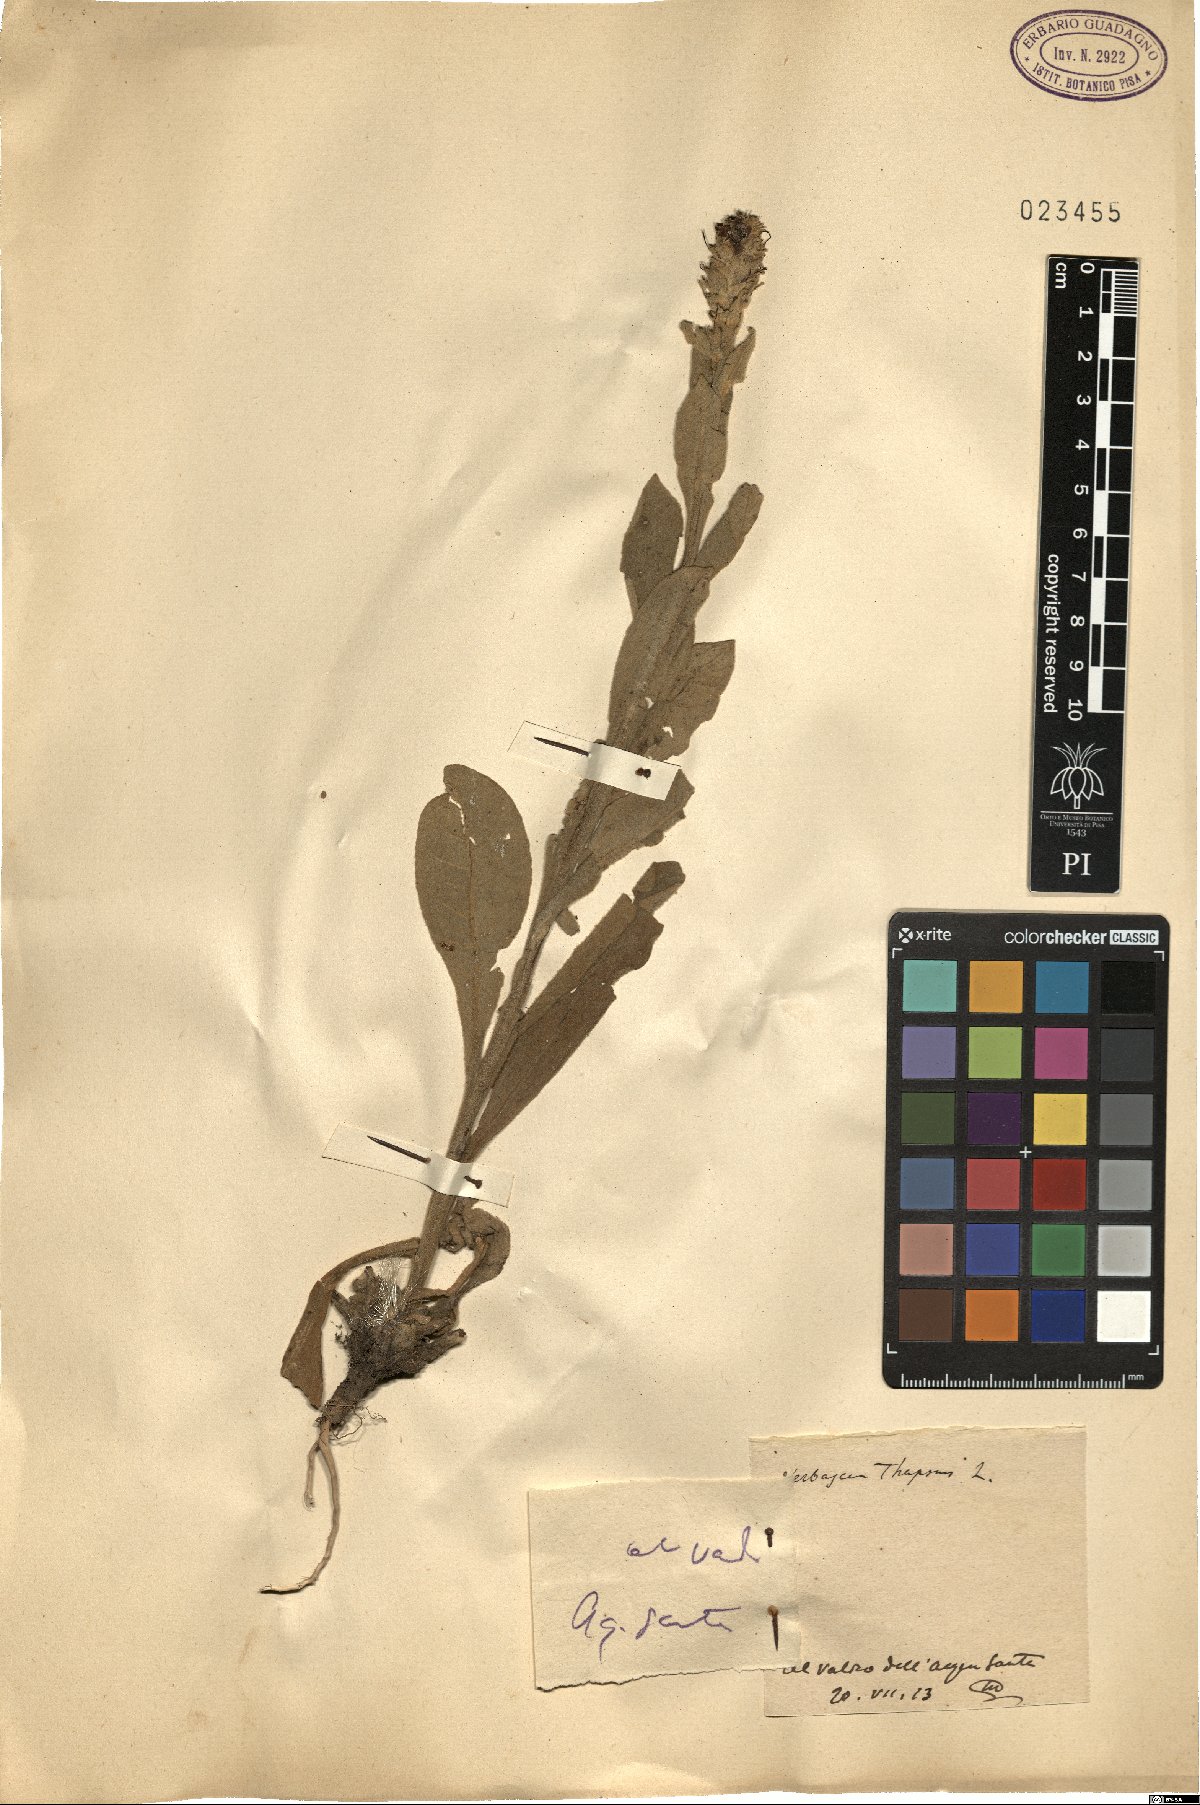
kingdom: Plantae
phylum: Tracheophyta
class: Magnoliopsida
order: Lamiales
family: Scrophulariaceae
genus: Verbascum
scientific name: Verbascum thapsus
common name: Common mullein
